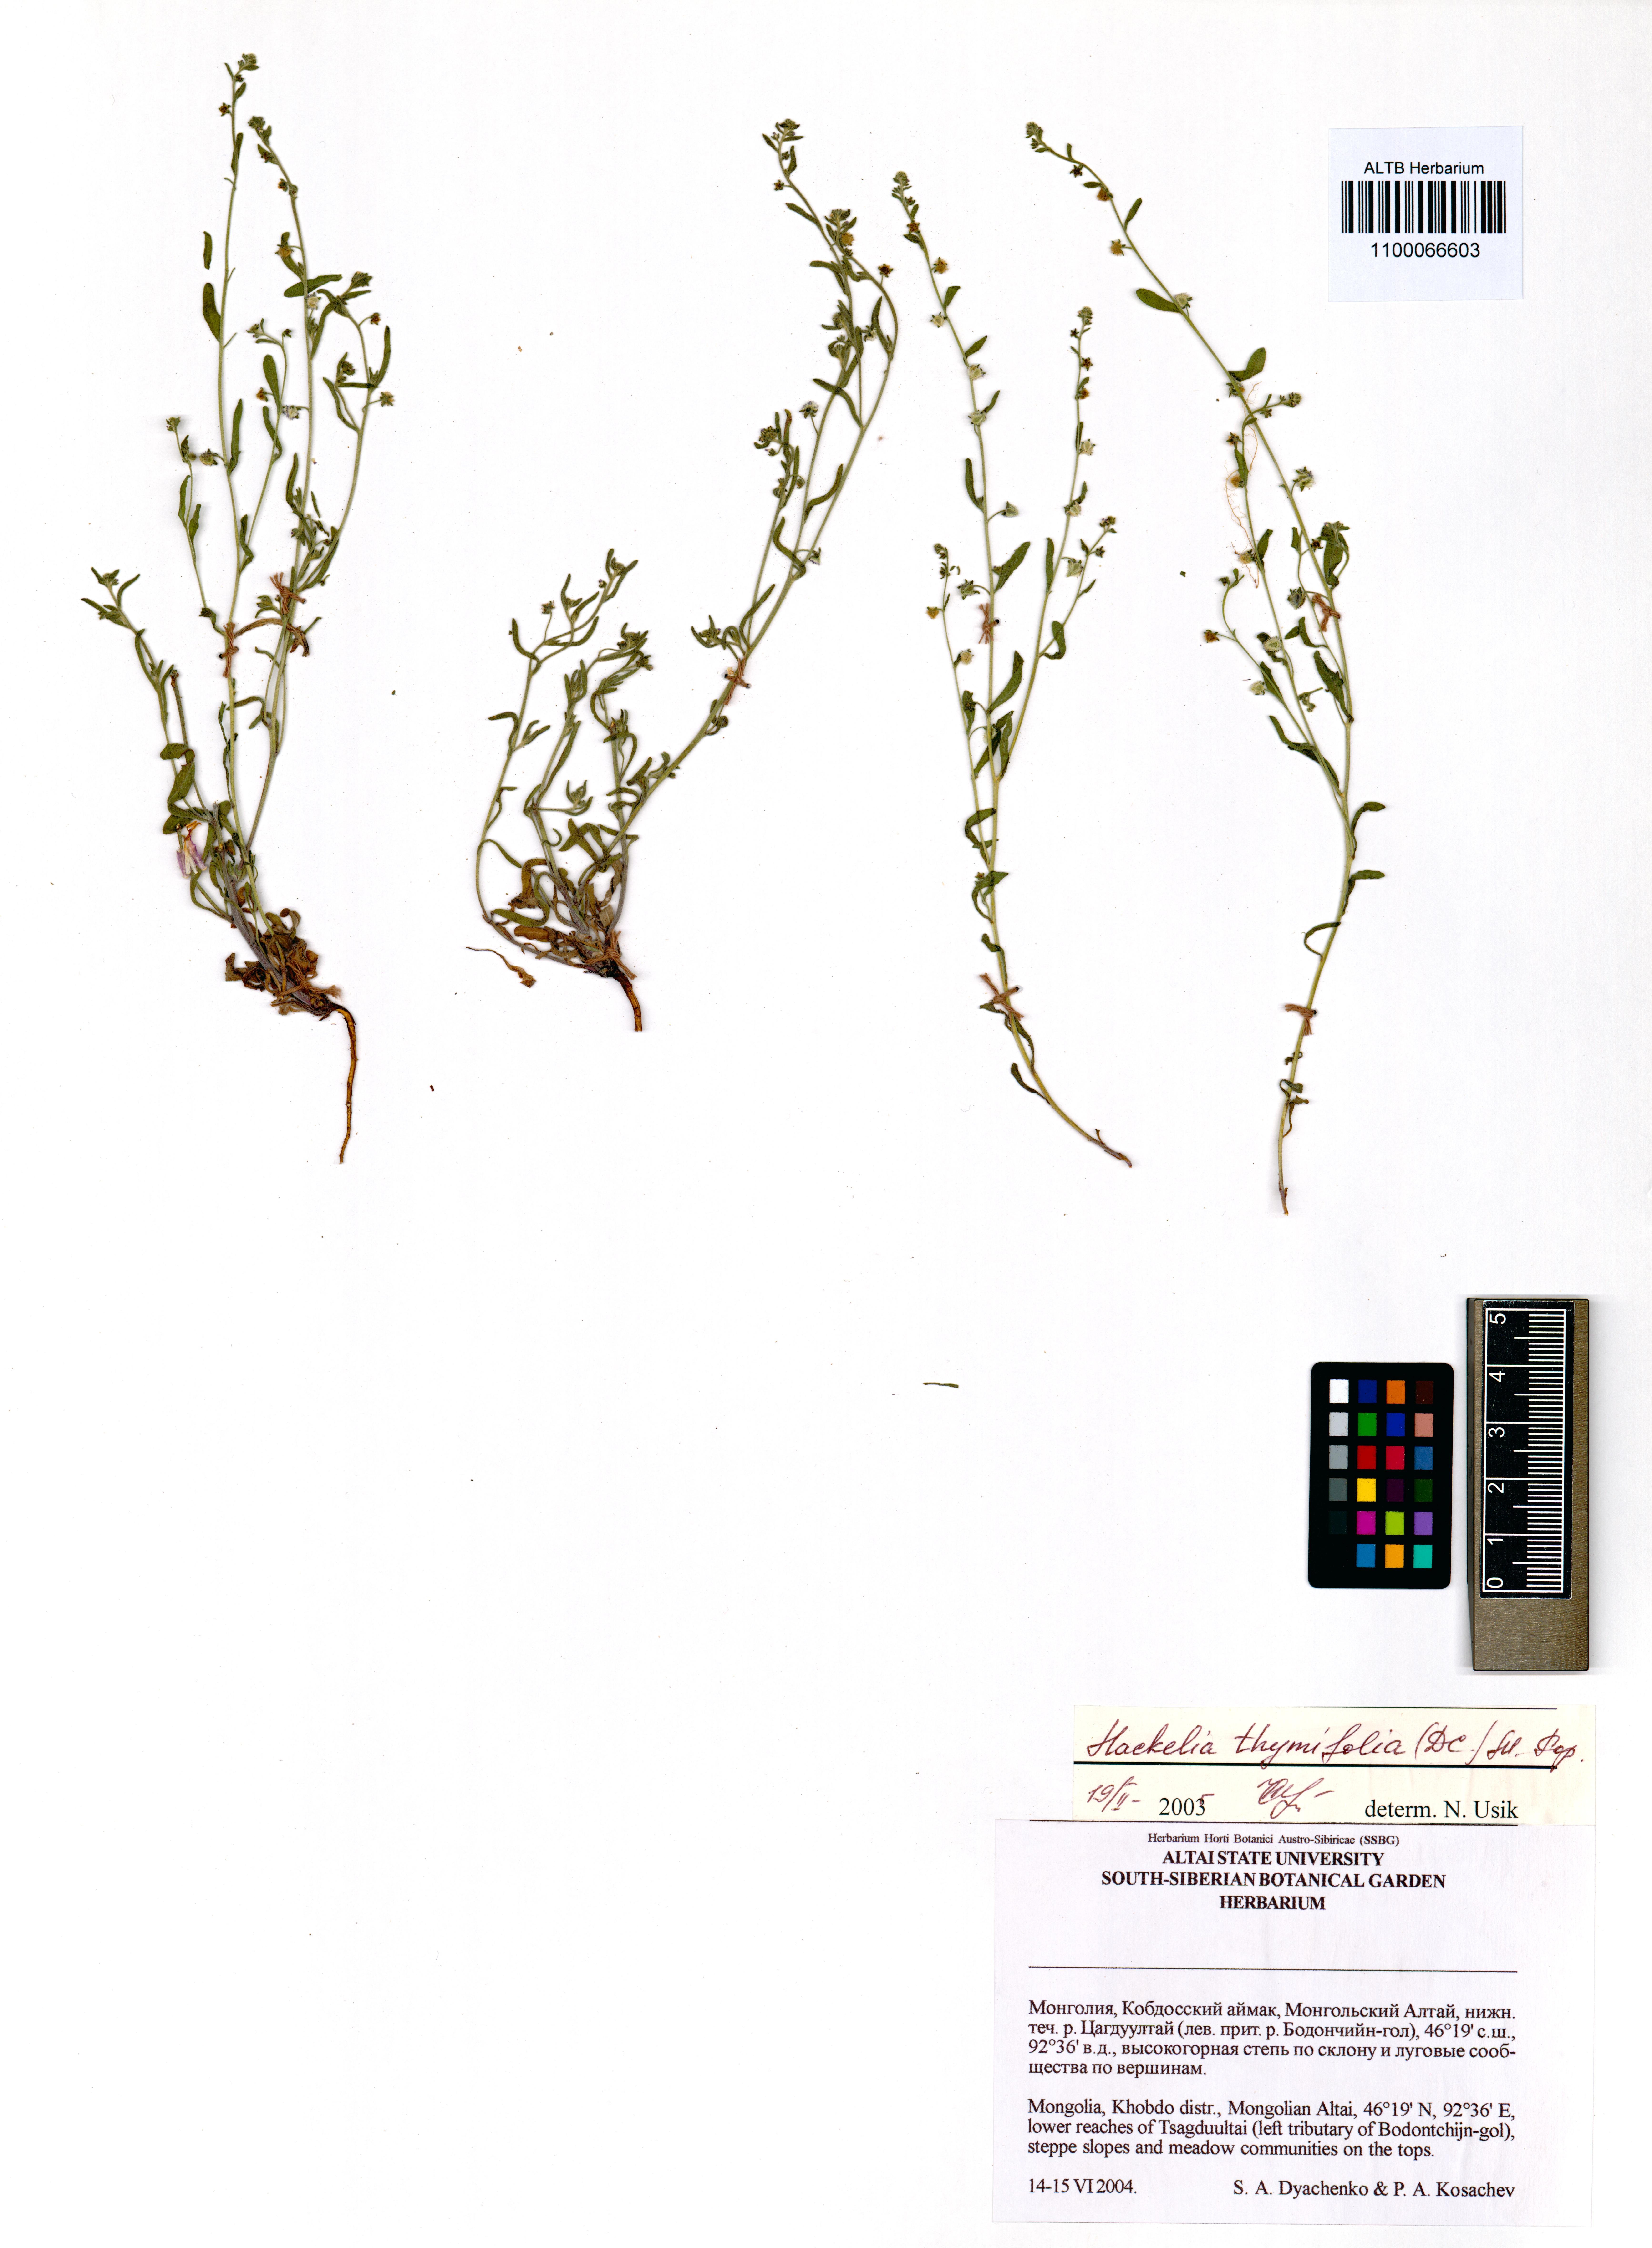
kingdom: Plantae
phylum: Tracheophyta
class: Magnoliopsida
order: Boraginales
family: Boraginaceae
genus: Eritrichium
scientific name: Eritrichium thymifolium
